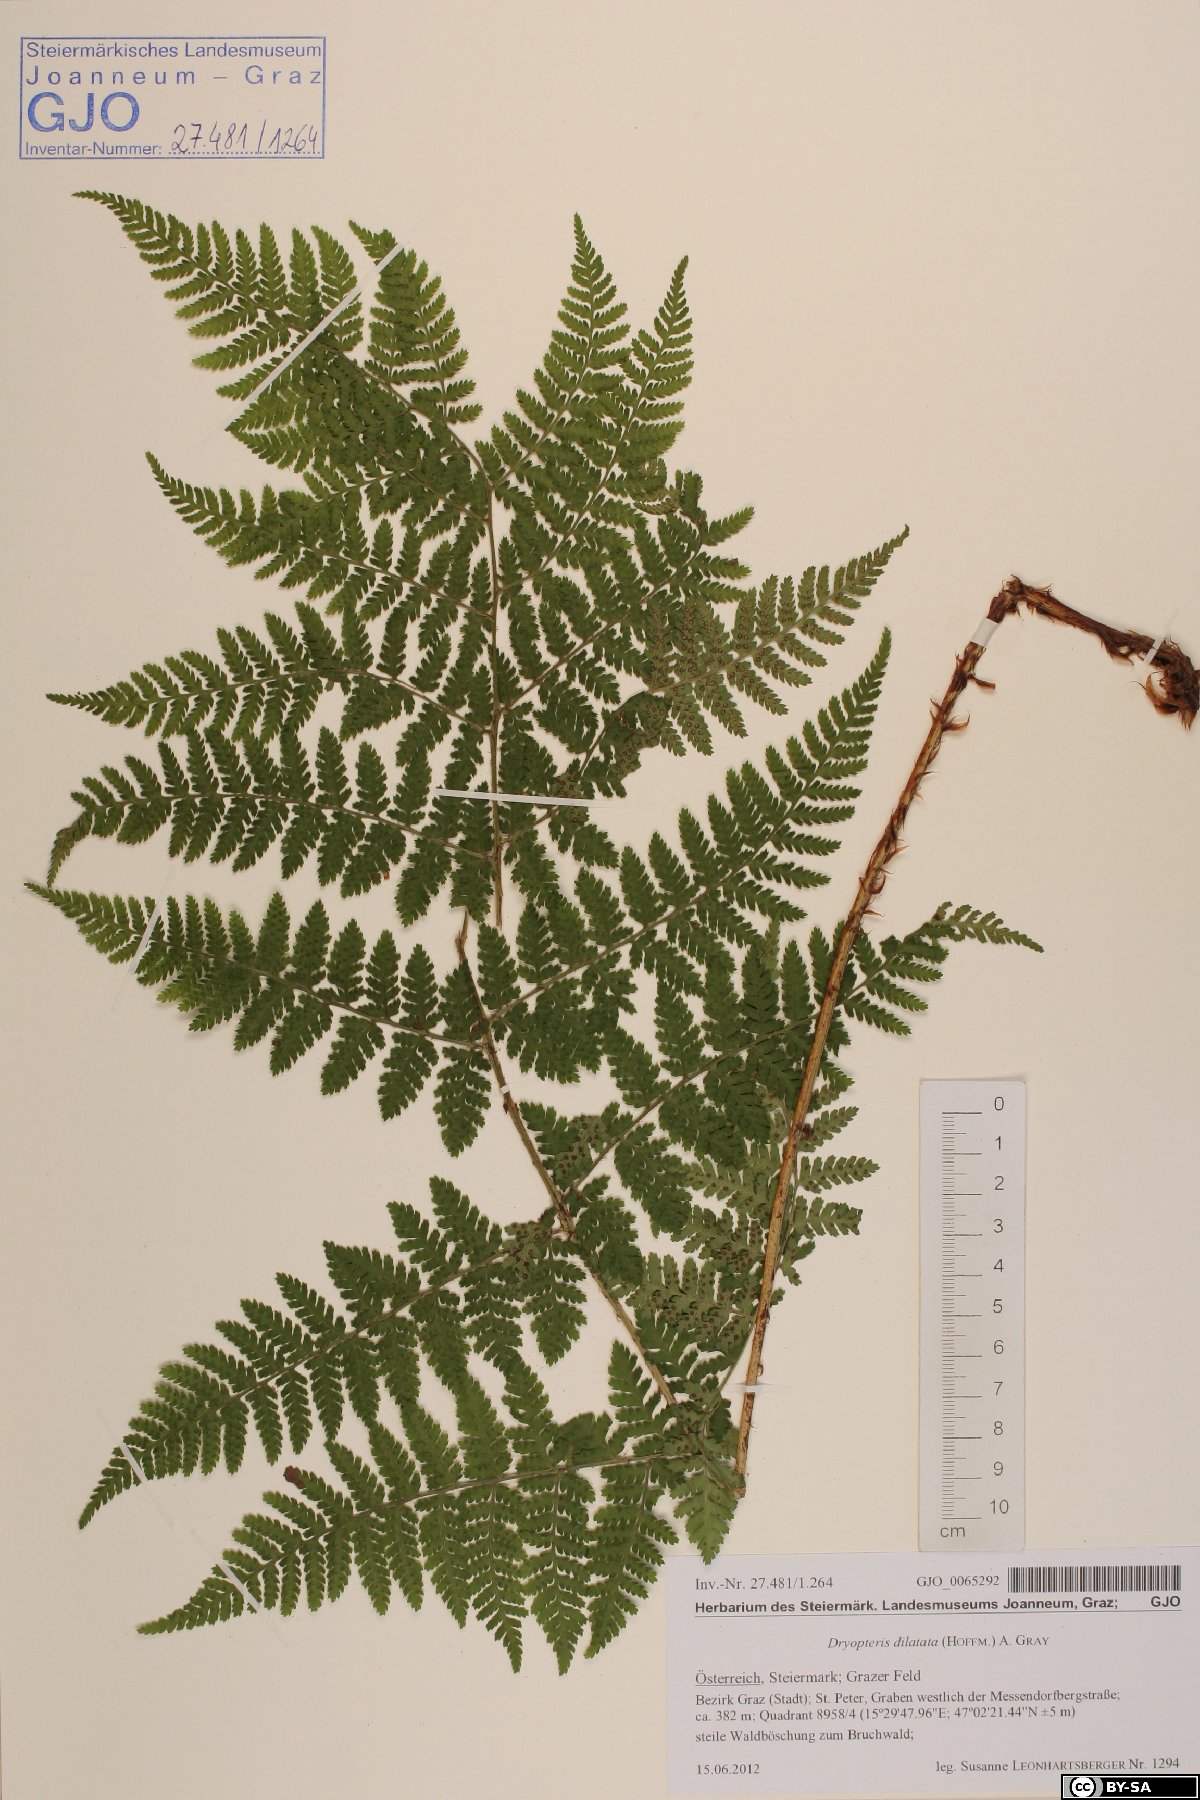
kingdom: Plantae
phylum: Tracheophyta
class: Polypodiopsida
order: Polypodiales
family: Dryopteridaceae
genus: Dryopteris
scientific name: Dryopteris dilatata
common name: Broad buckler-fern
